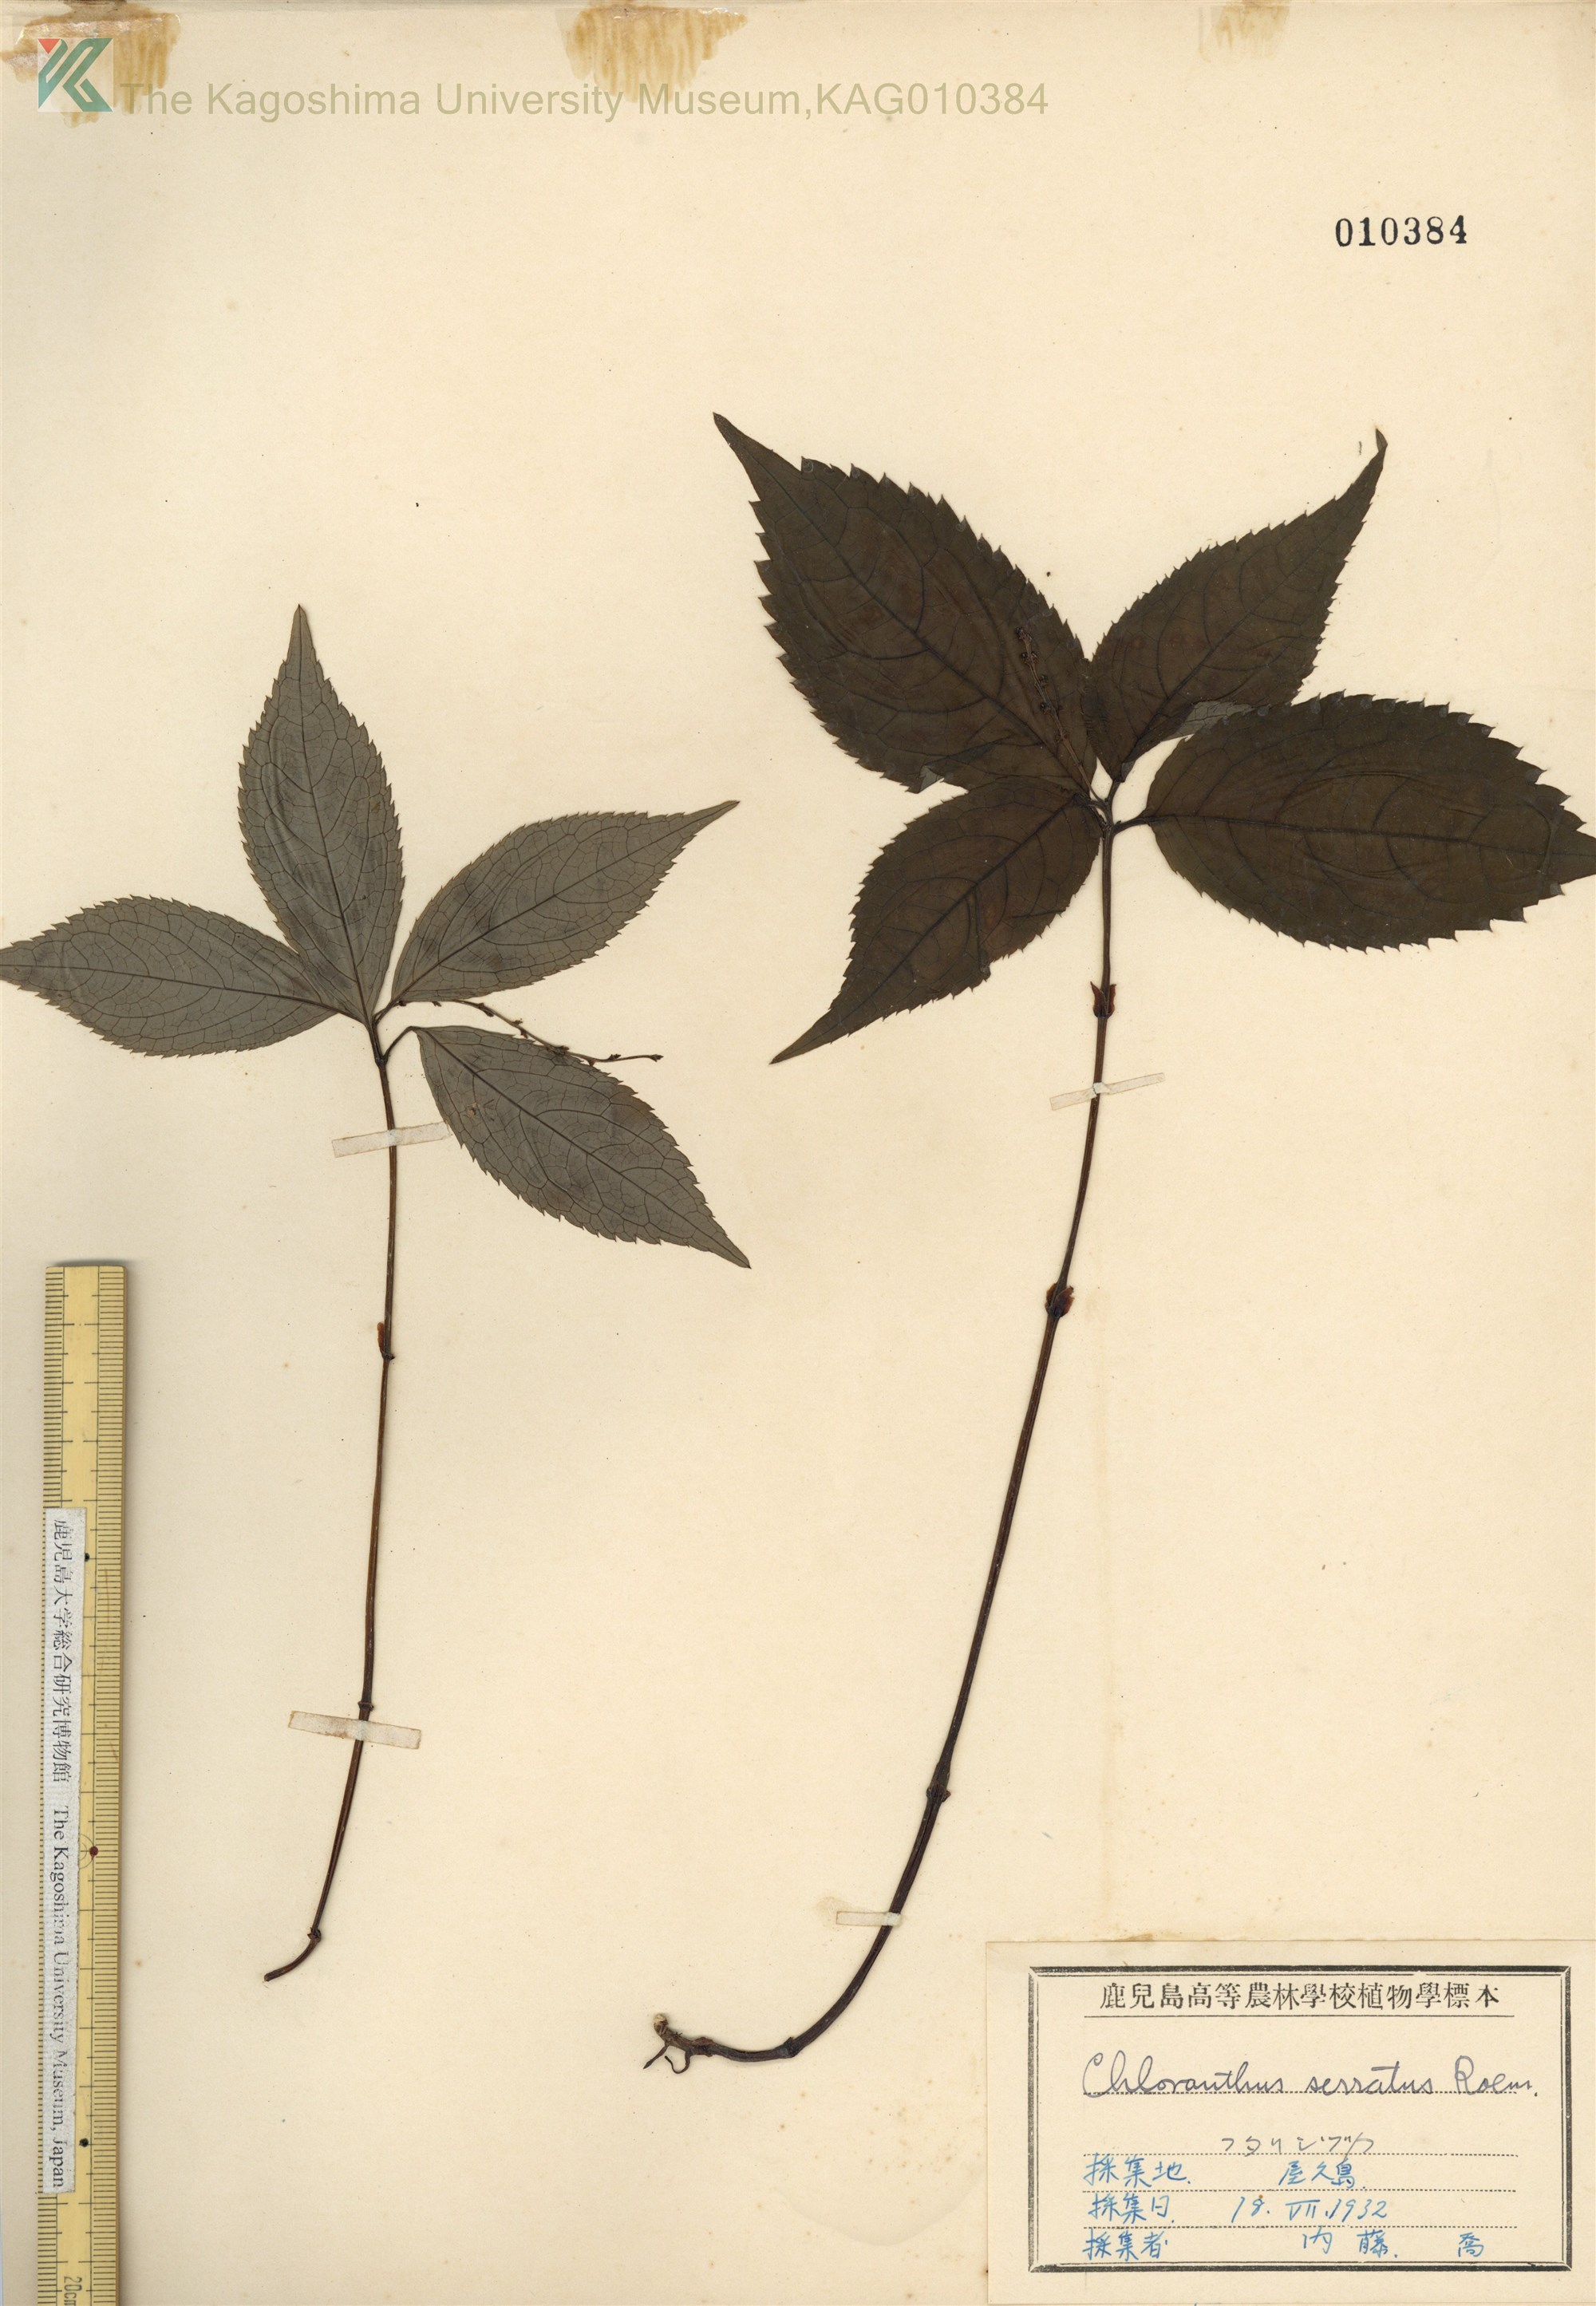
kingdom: Plantae
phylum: Tracheophyta
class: Magnoliopsida
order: Chloranthales
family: Chloranthaceae
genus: Chloranthus
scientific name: Chloranthus serratus
